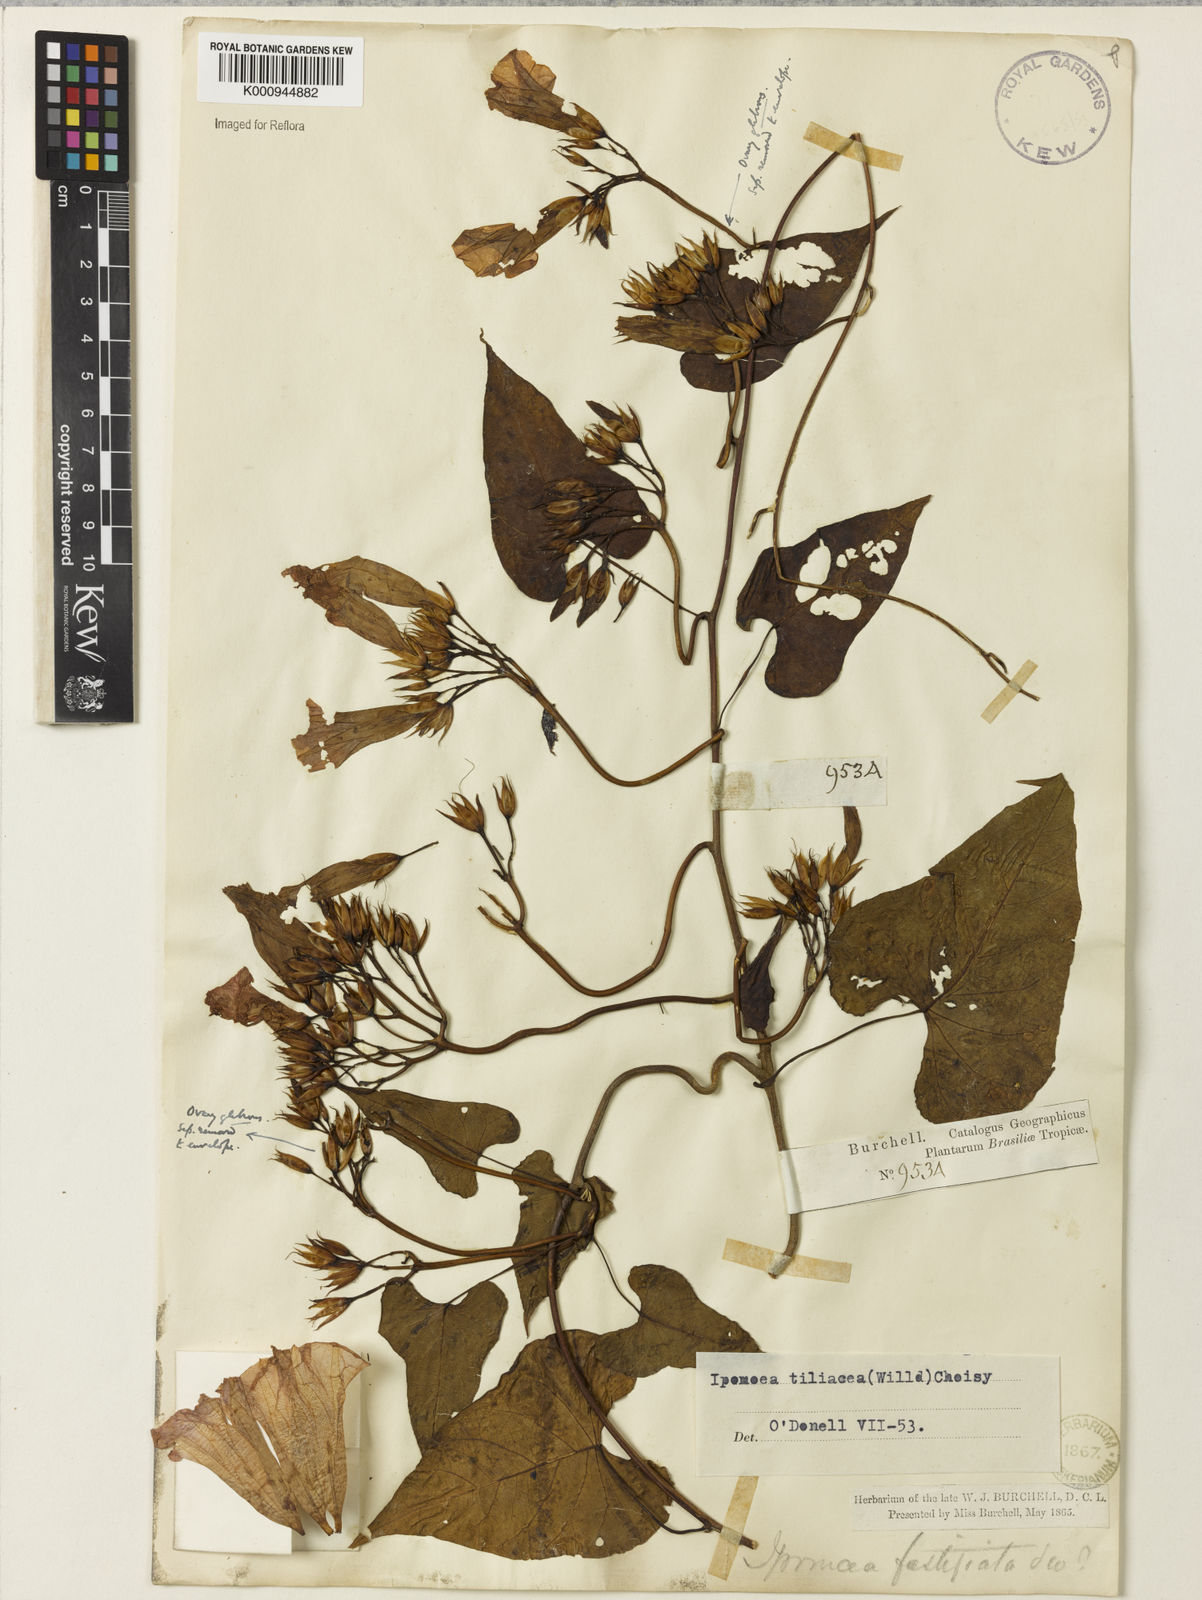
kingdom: Plantae
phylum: Tracheophyta
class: Magnoliopsida
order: Solanales
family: Convolvulaceae
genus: Ipomoea
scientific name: Ipomoea tiliacea
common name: Wild potato vine
